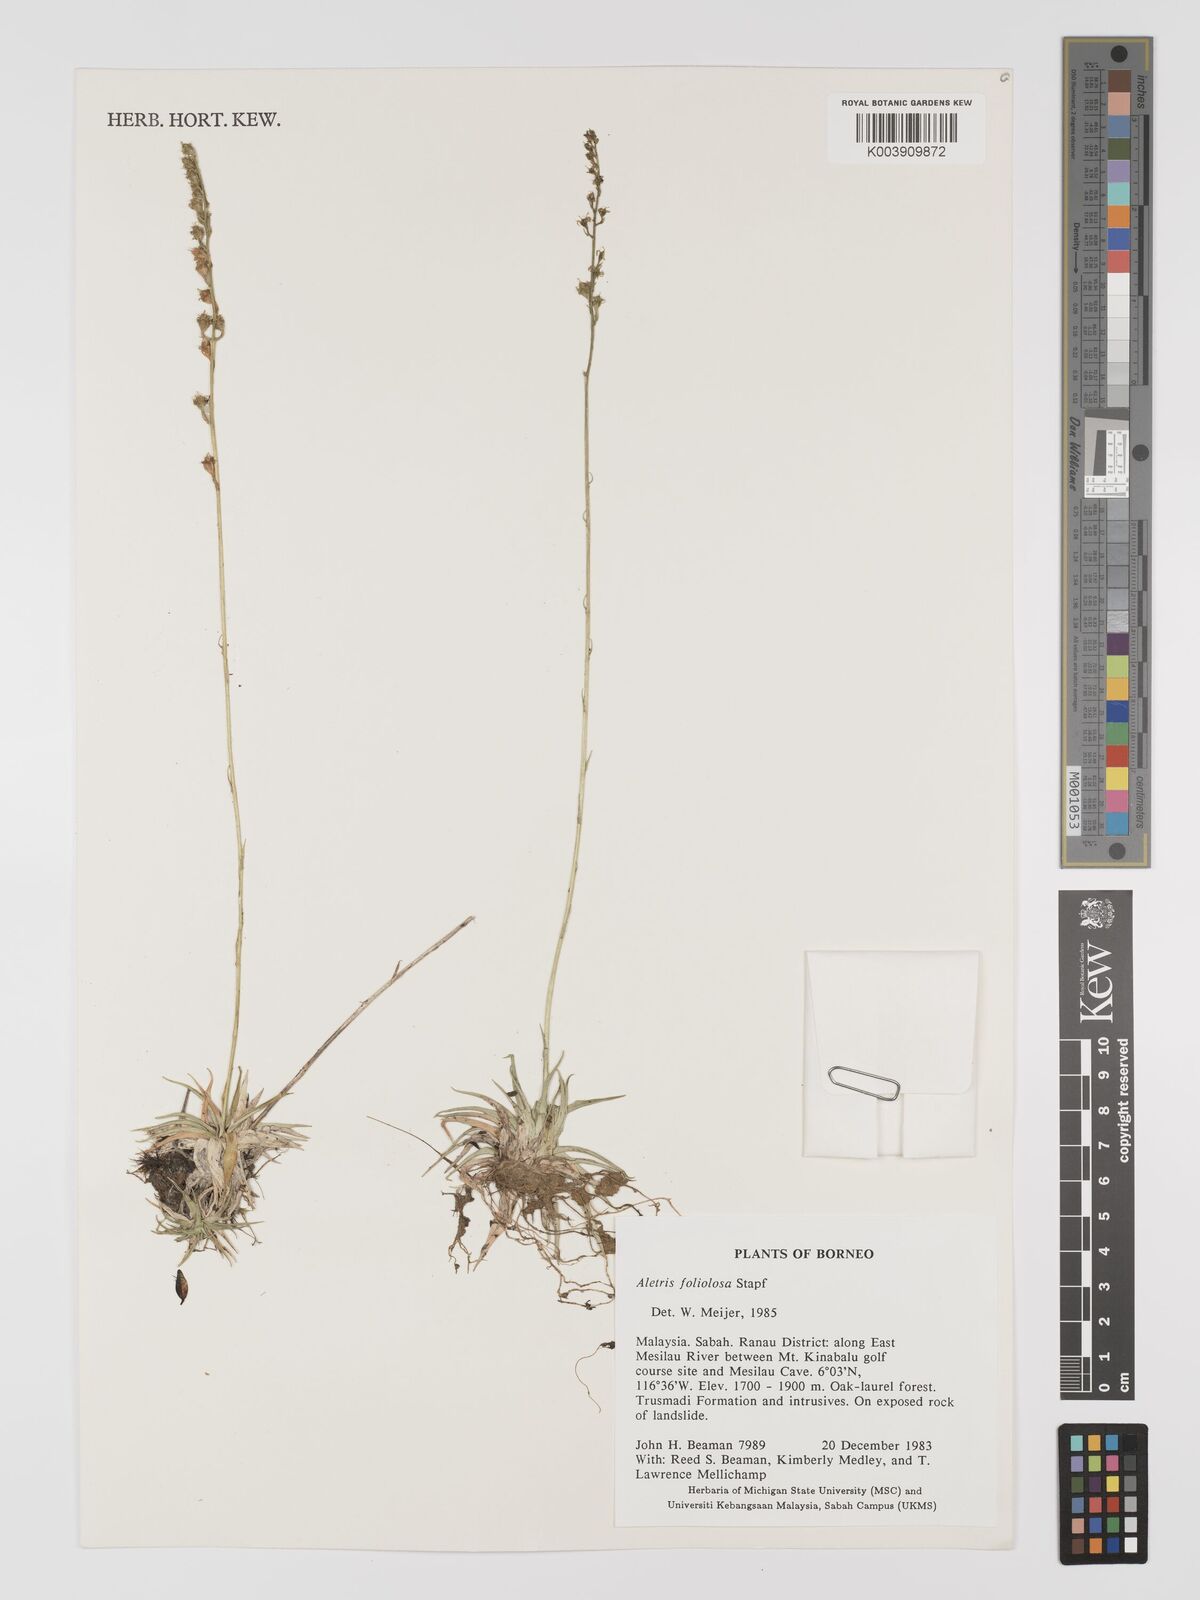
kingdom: Plantae
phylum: Tracheophyta
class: Liliopsida
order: Dioscoreales
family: Nartheciaceae
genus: Aletris
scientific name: Aletris foliolosa
